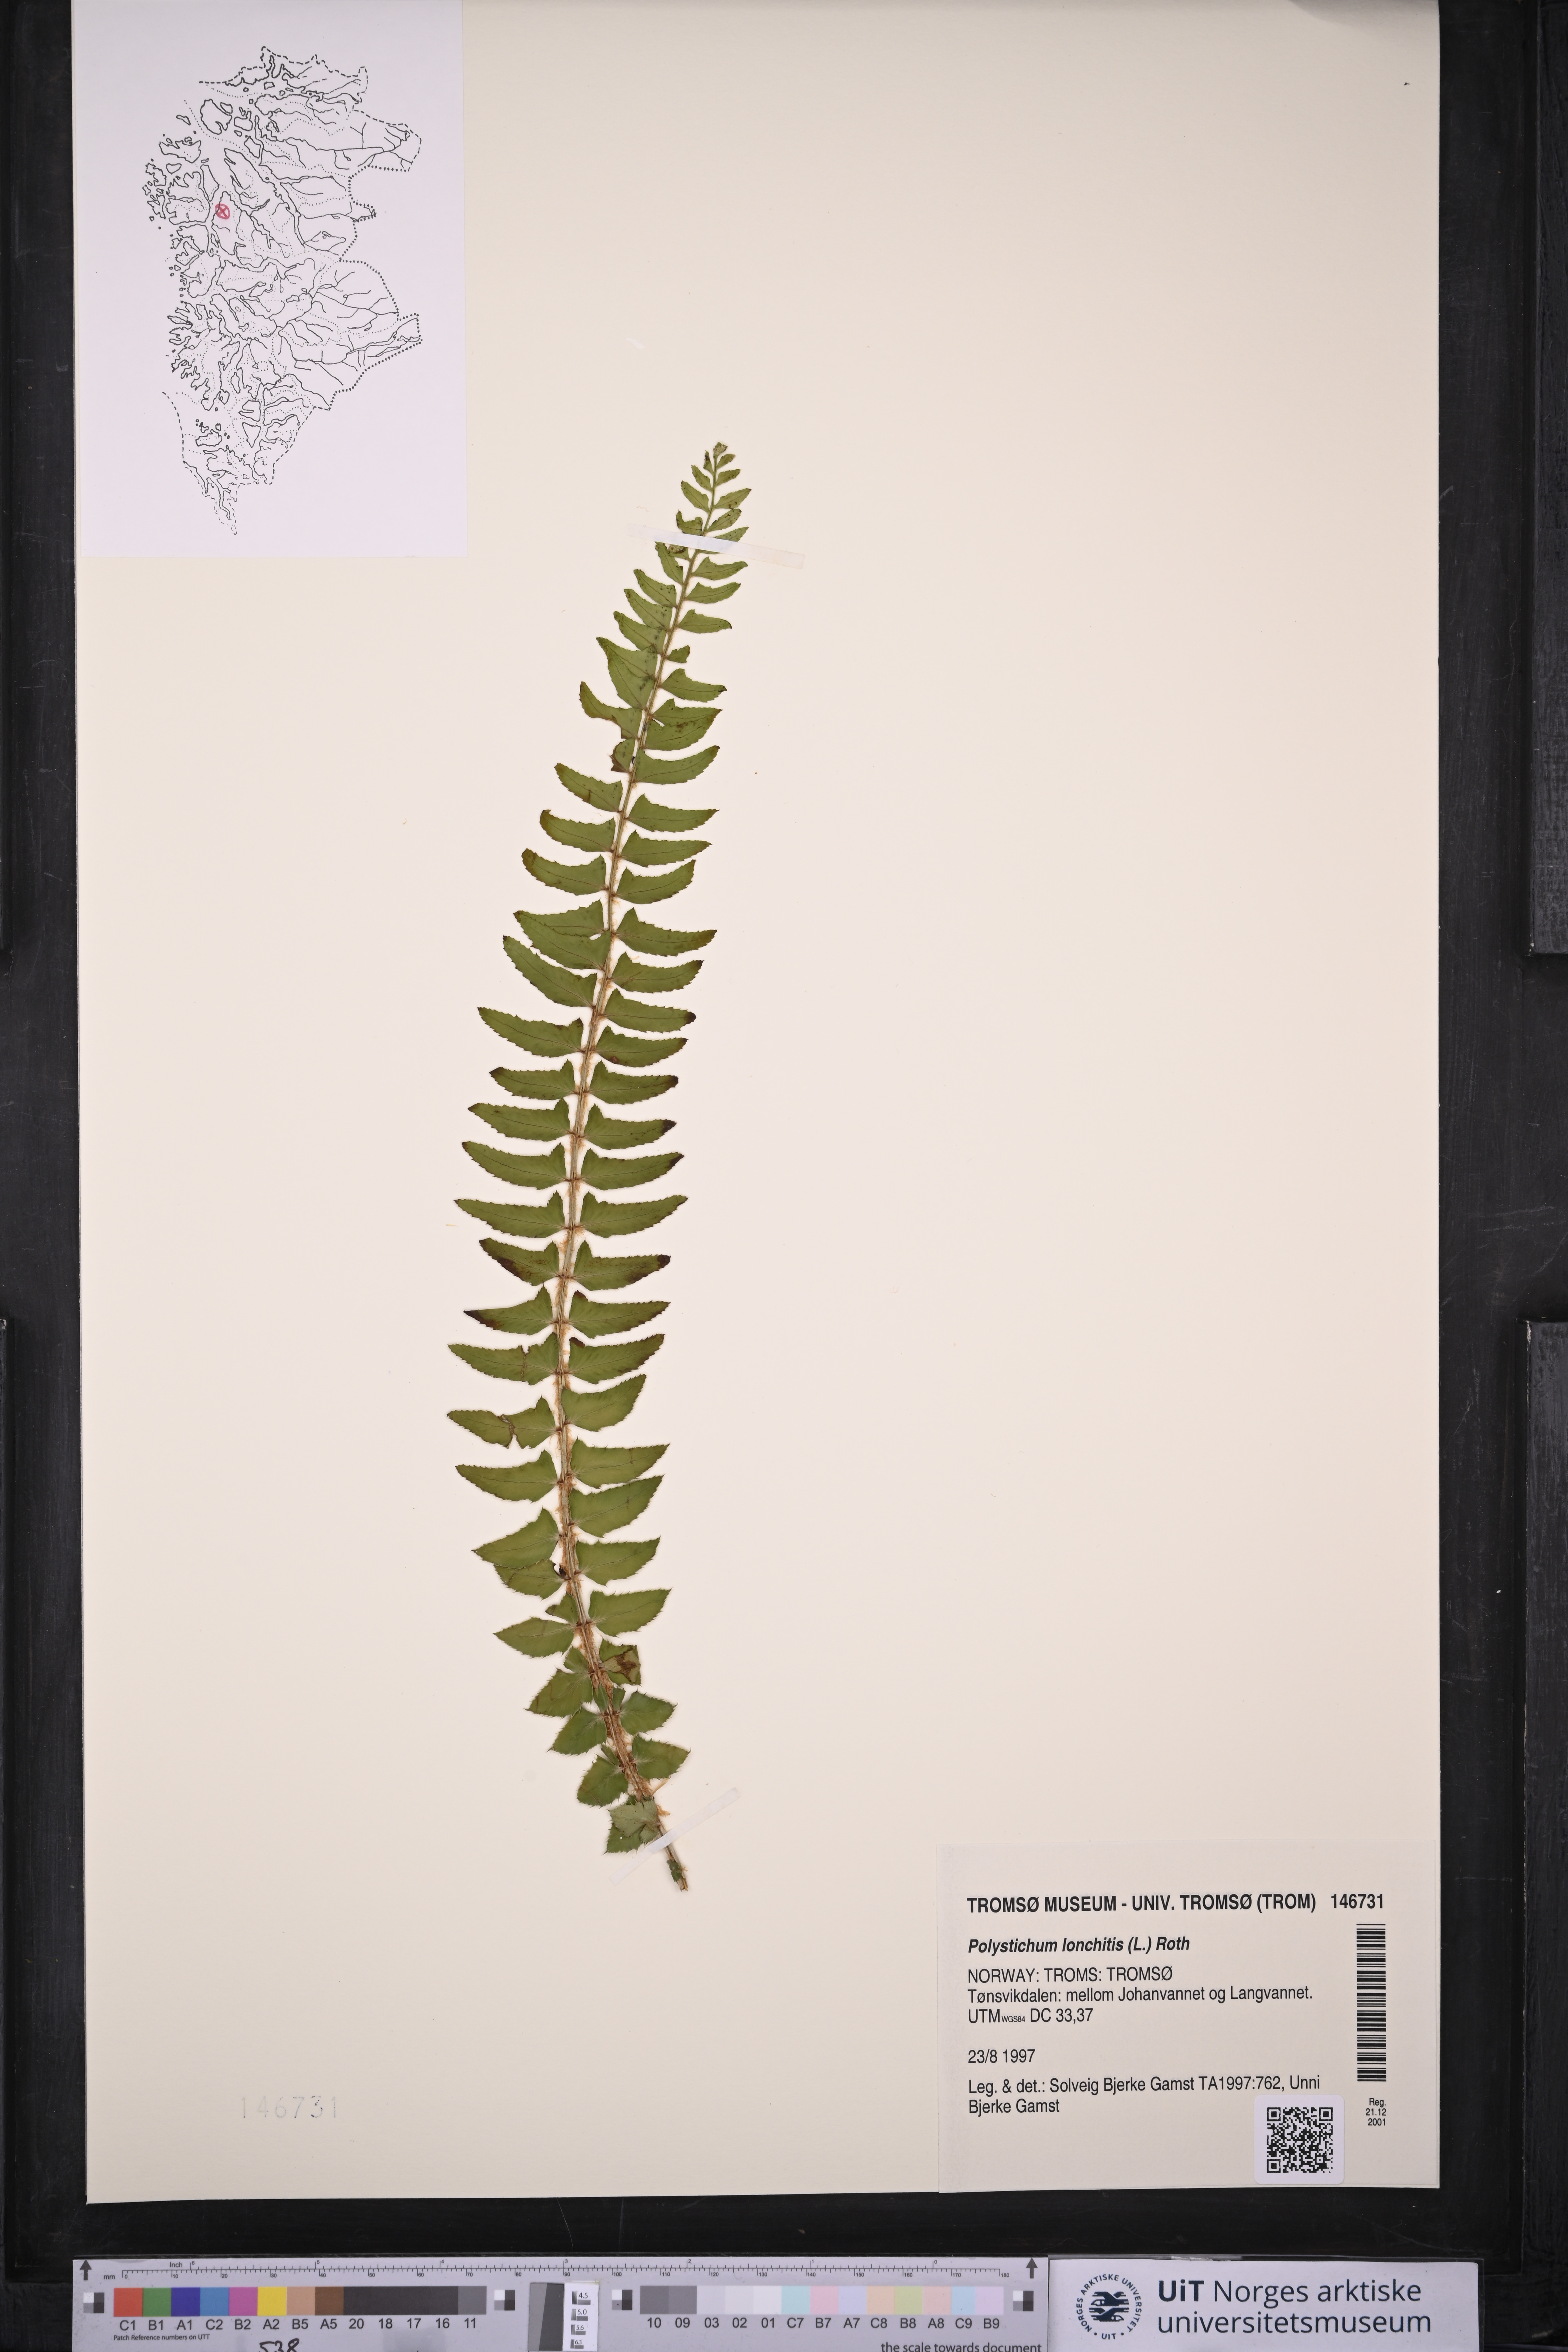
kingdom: Plantae
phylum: Tracheophyta
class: Polypodiopsida
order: Polypodiales
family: Dryopteridaceae
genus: Polystichum
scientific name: Polystichum lonchitis
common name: Holly fern
